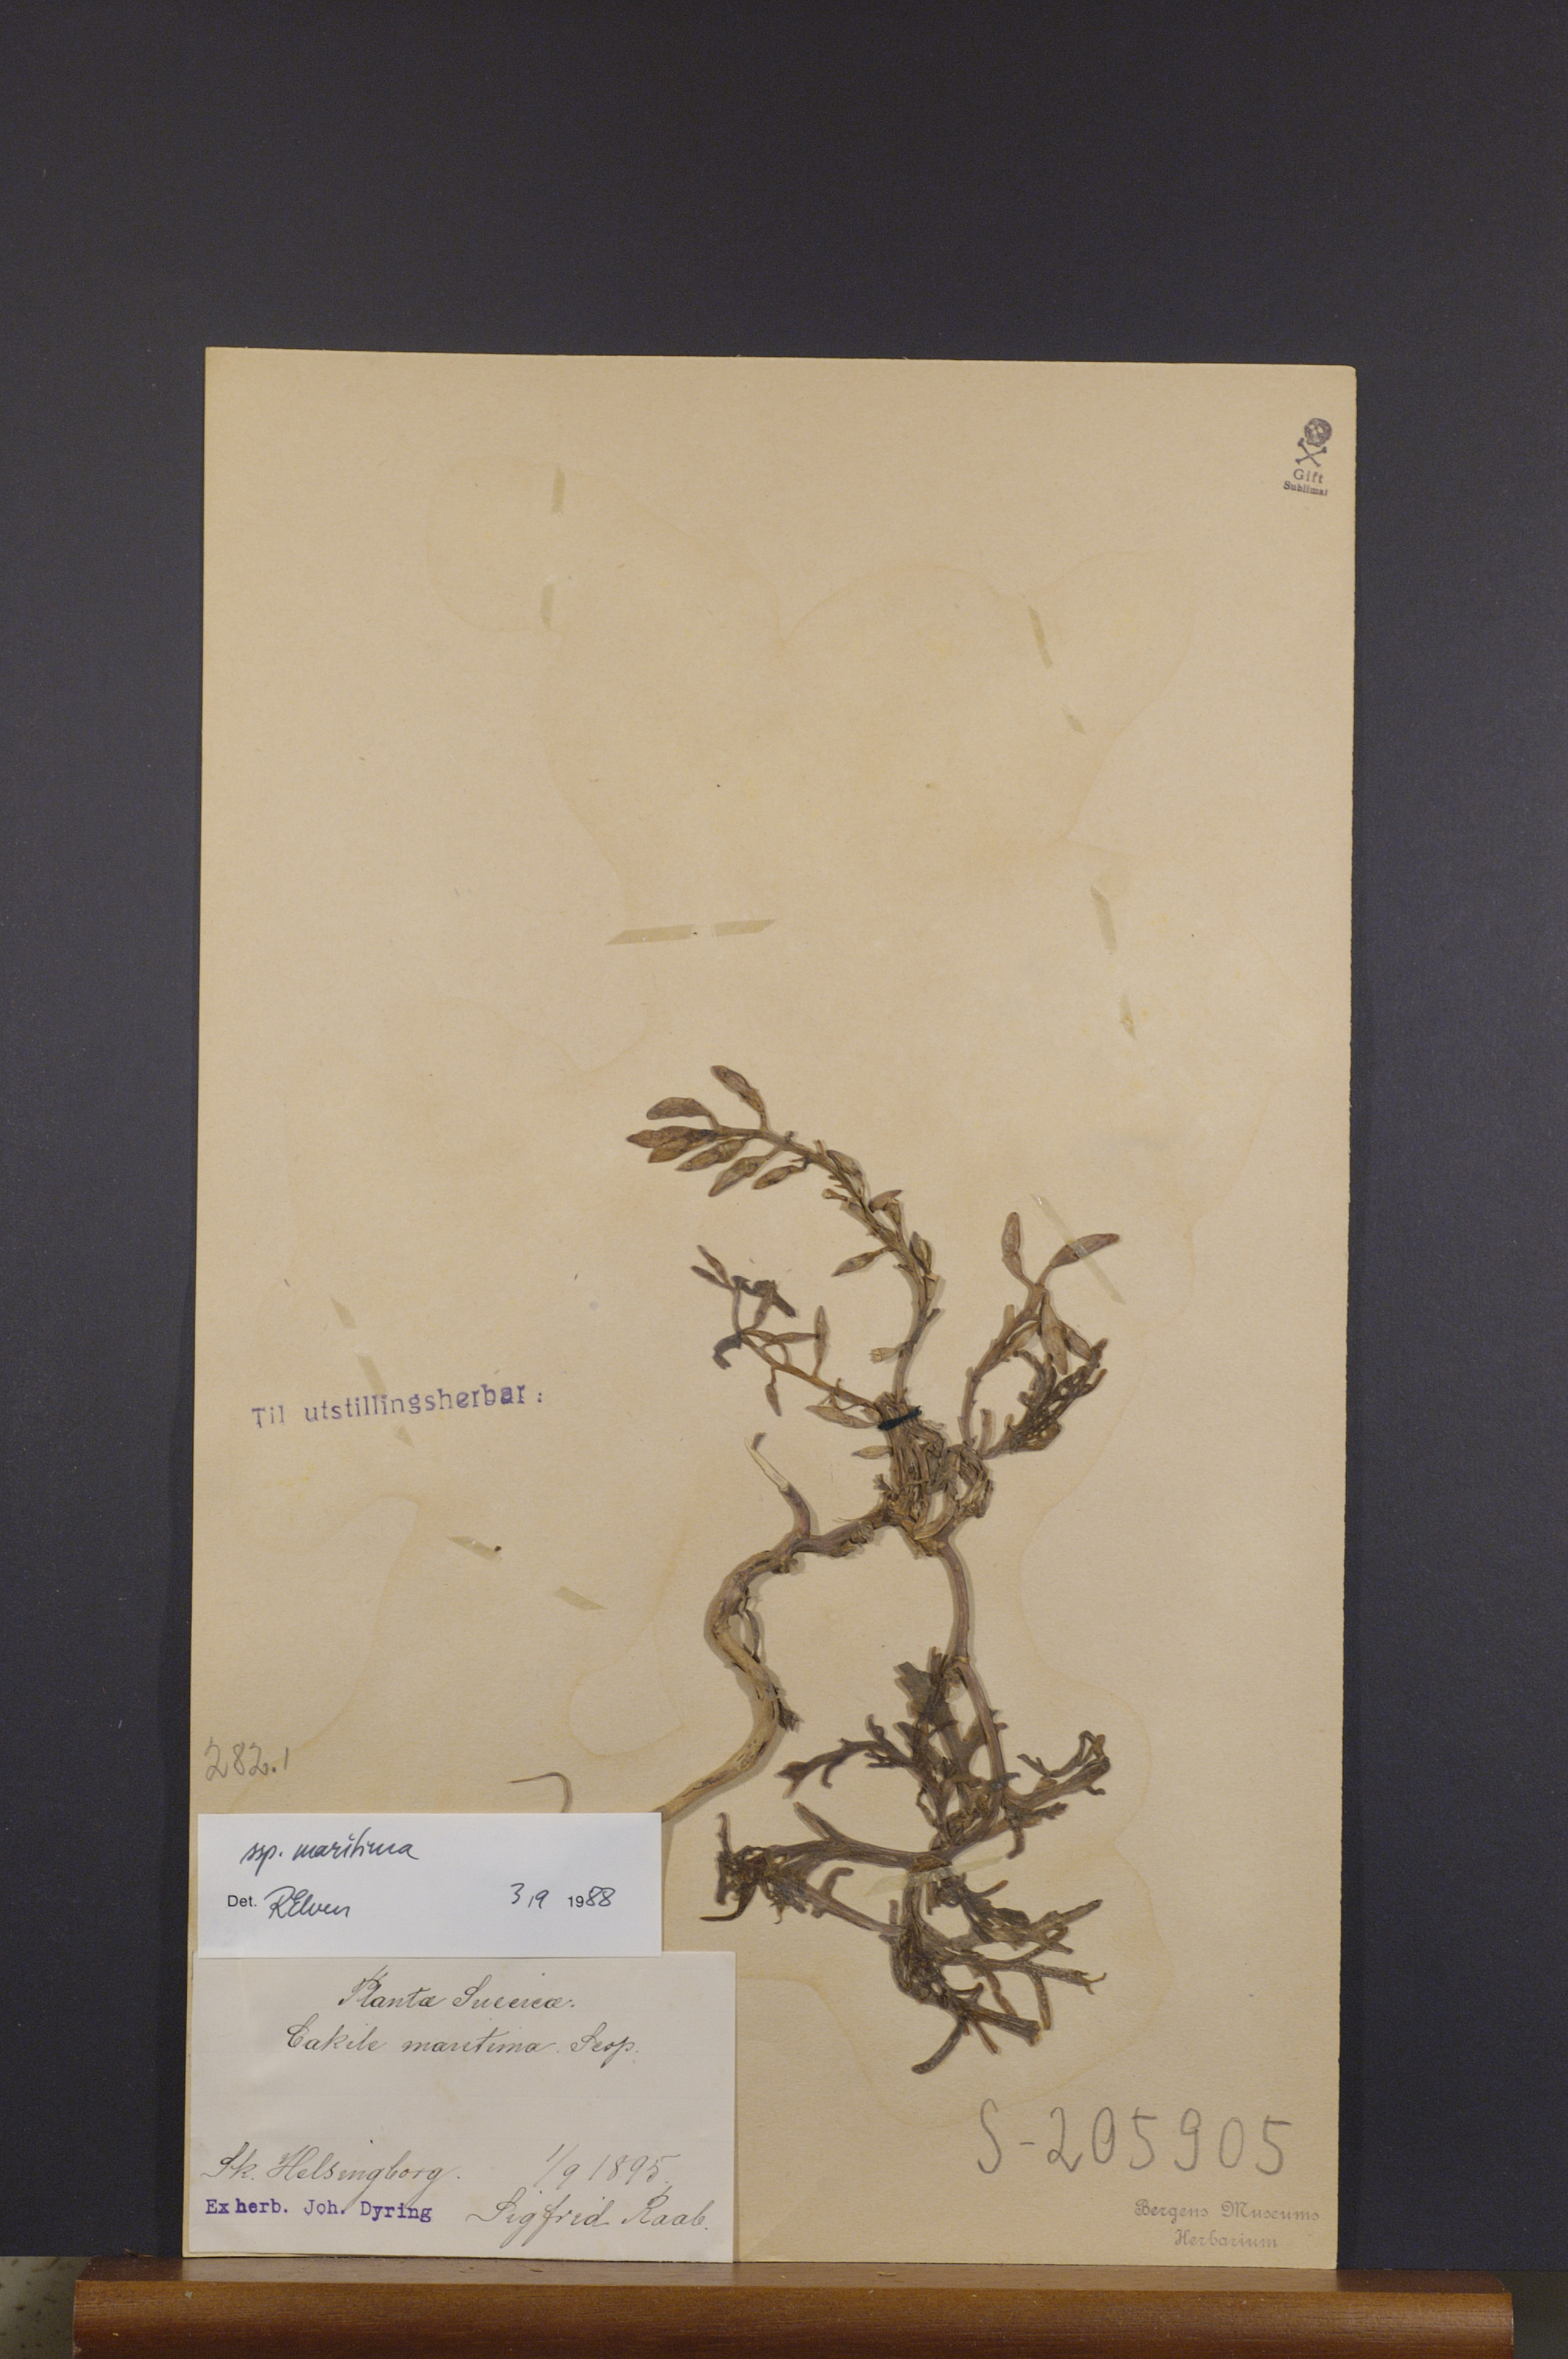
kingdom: Plantae
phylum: Tracheophyta
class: Magnoliopsida
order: Brassicales
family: Brassicaceae
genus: Cakile
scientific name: Cakile maritima
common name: Sea rocket
